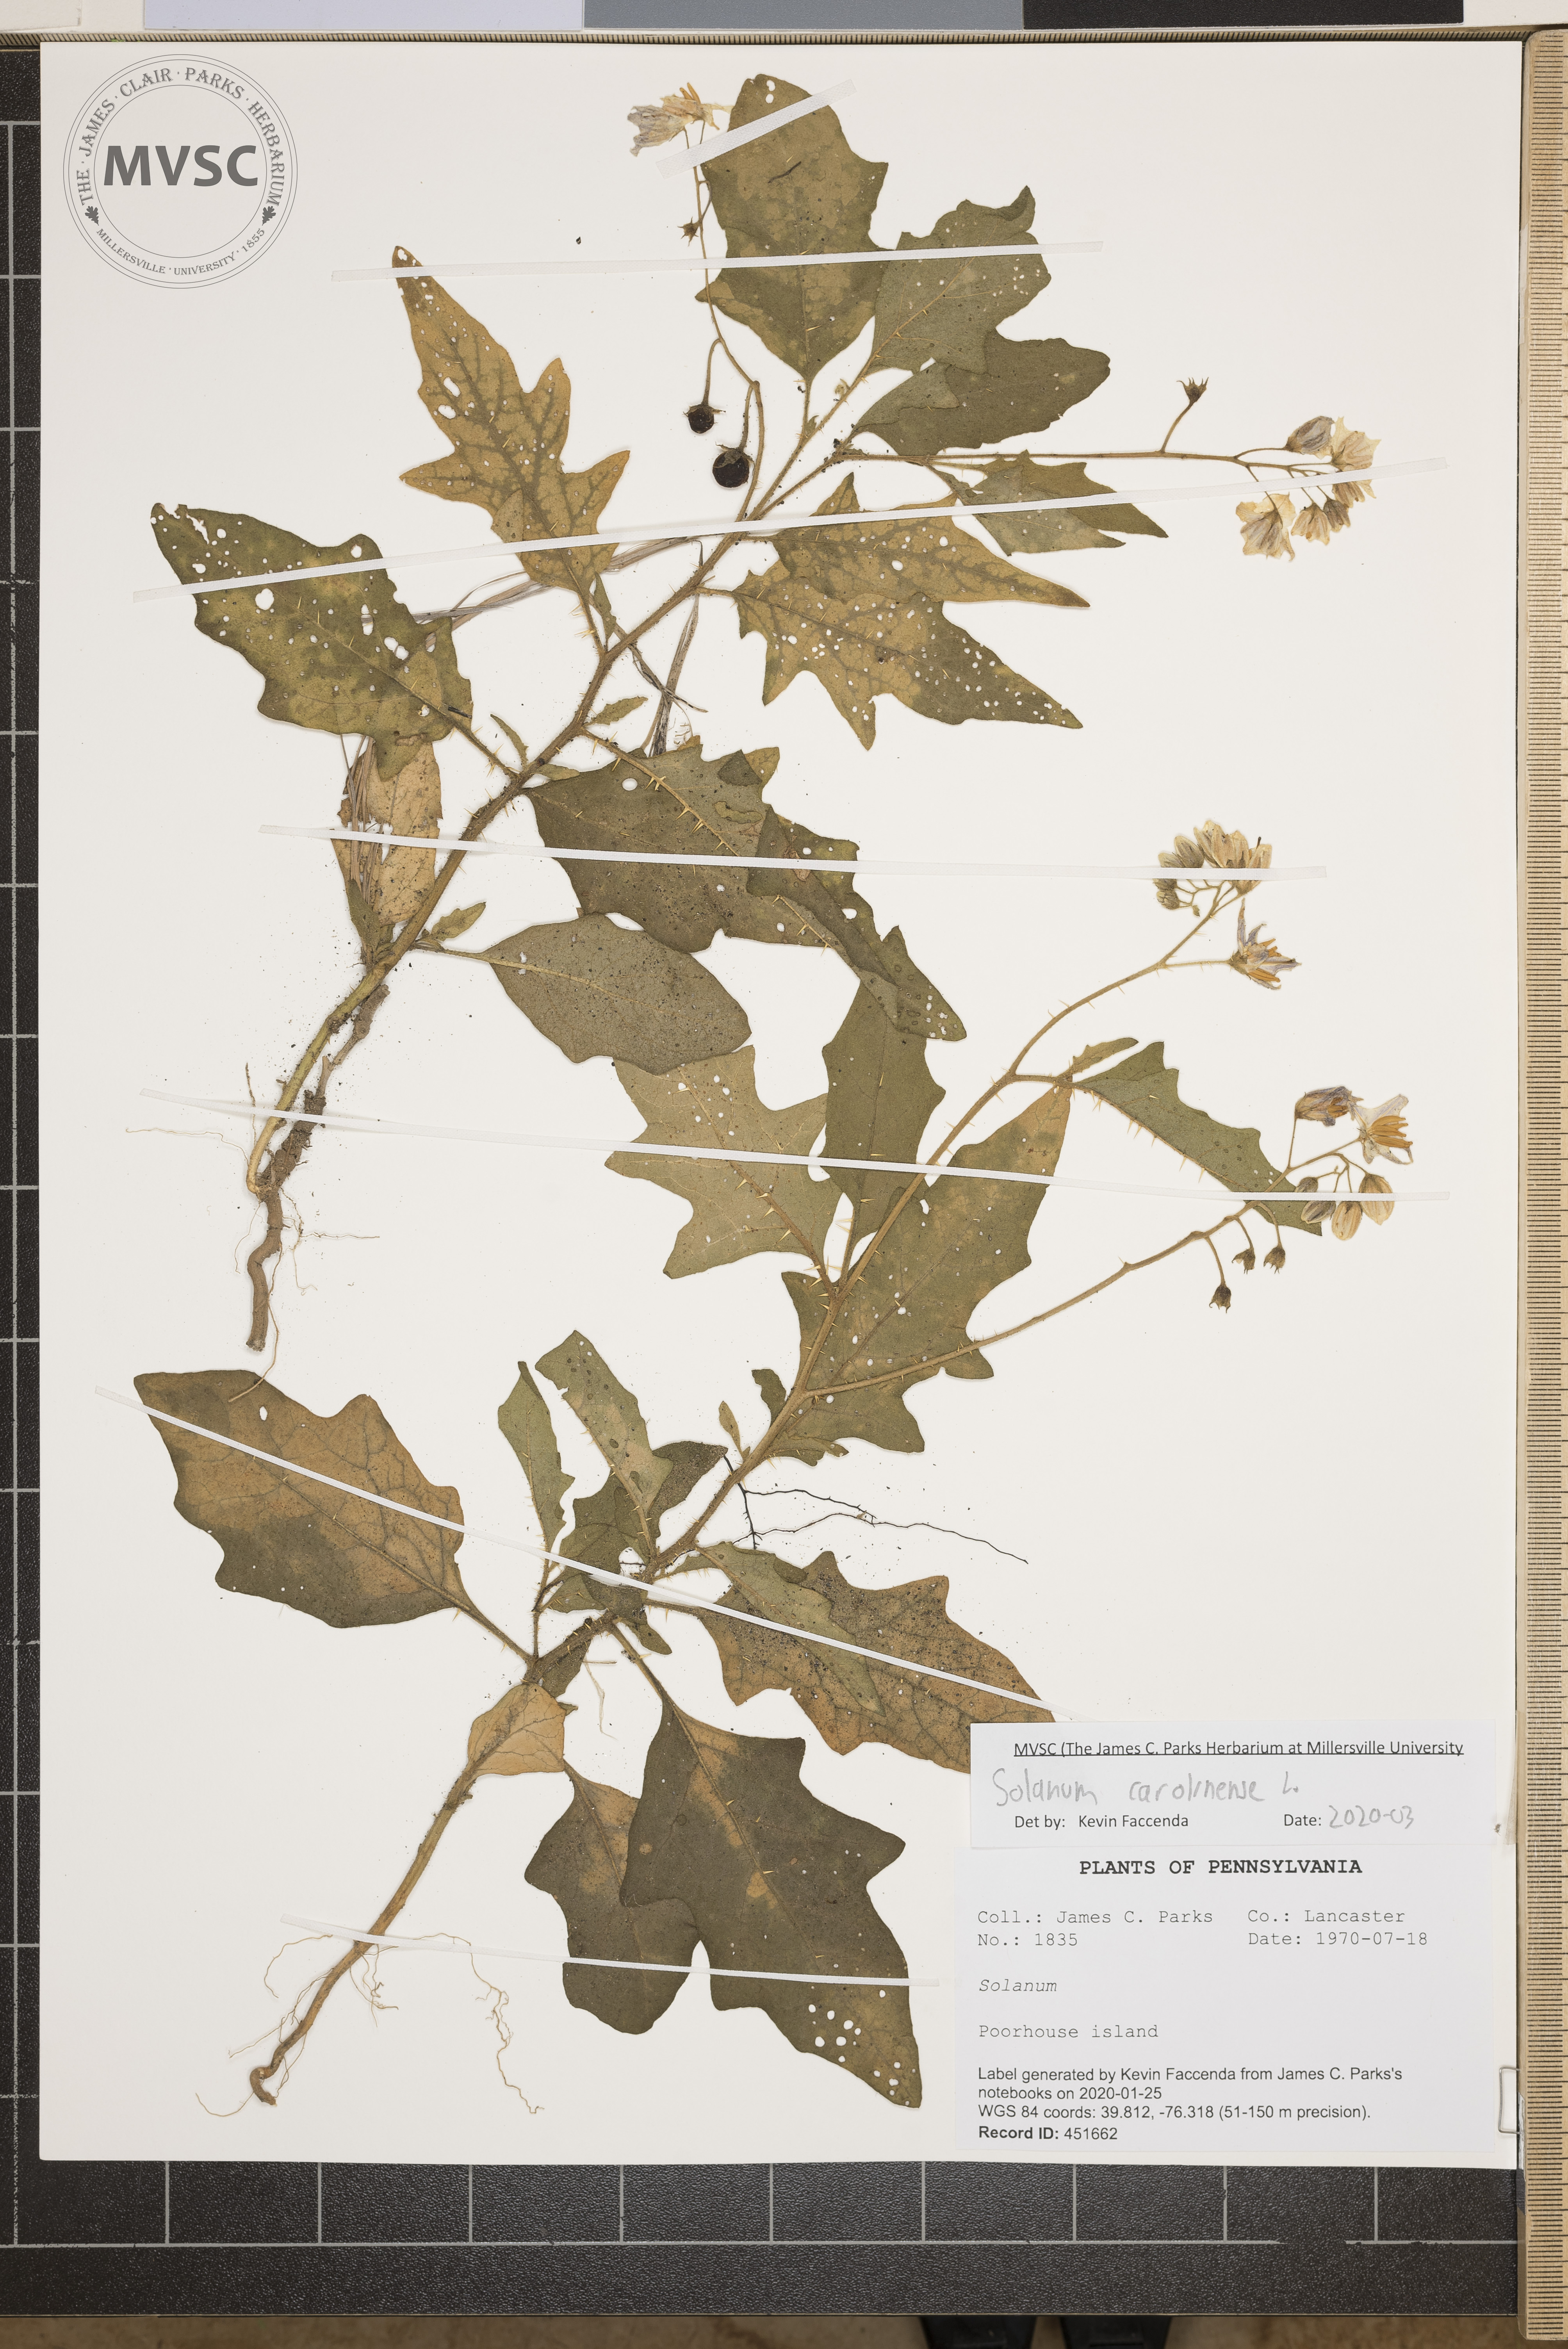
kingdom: Plantae
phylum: Tracheophyta
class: Magnoliopsida
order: Solanales
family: Solanaceae
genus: Solanum
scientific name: Solanum carolinense
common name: Horse-nettle
